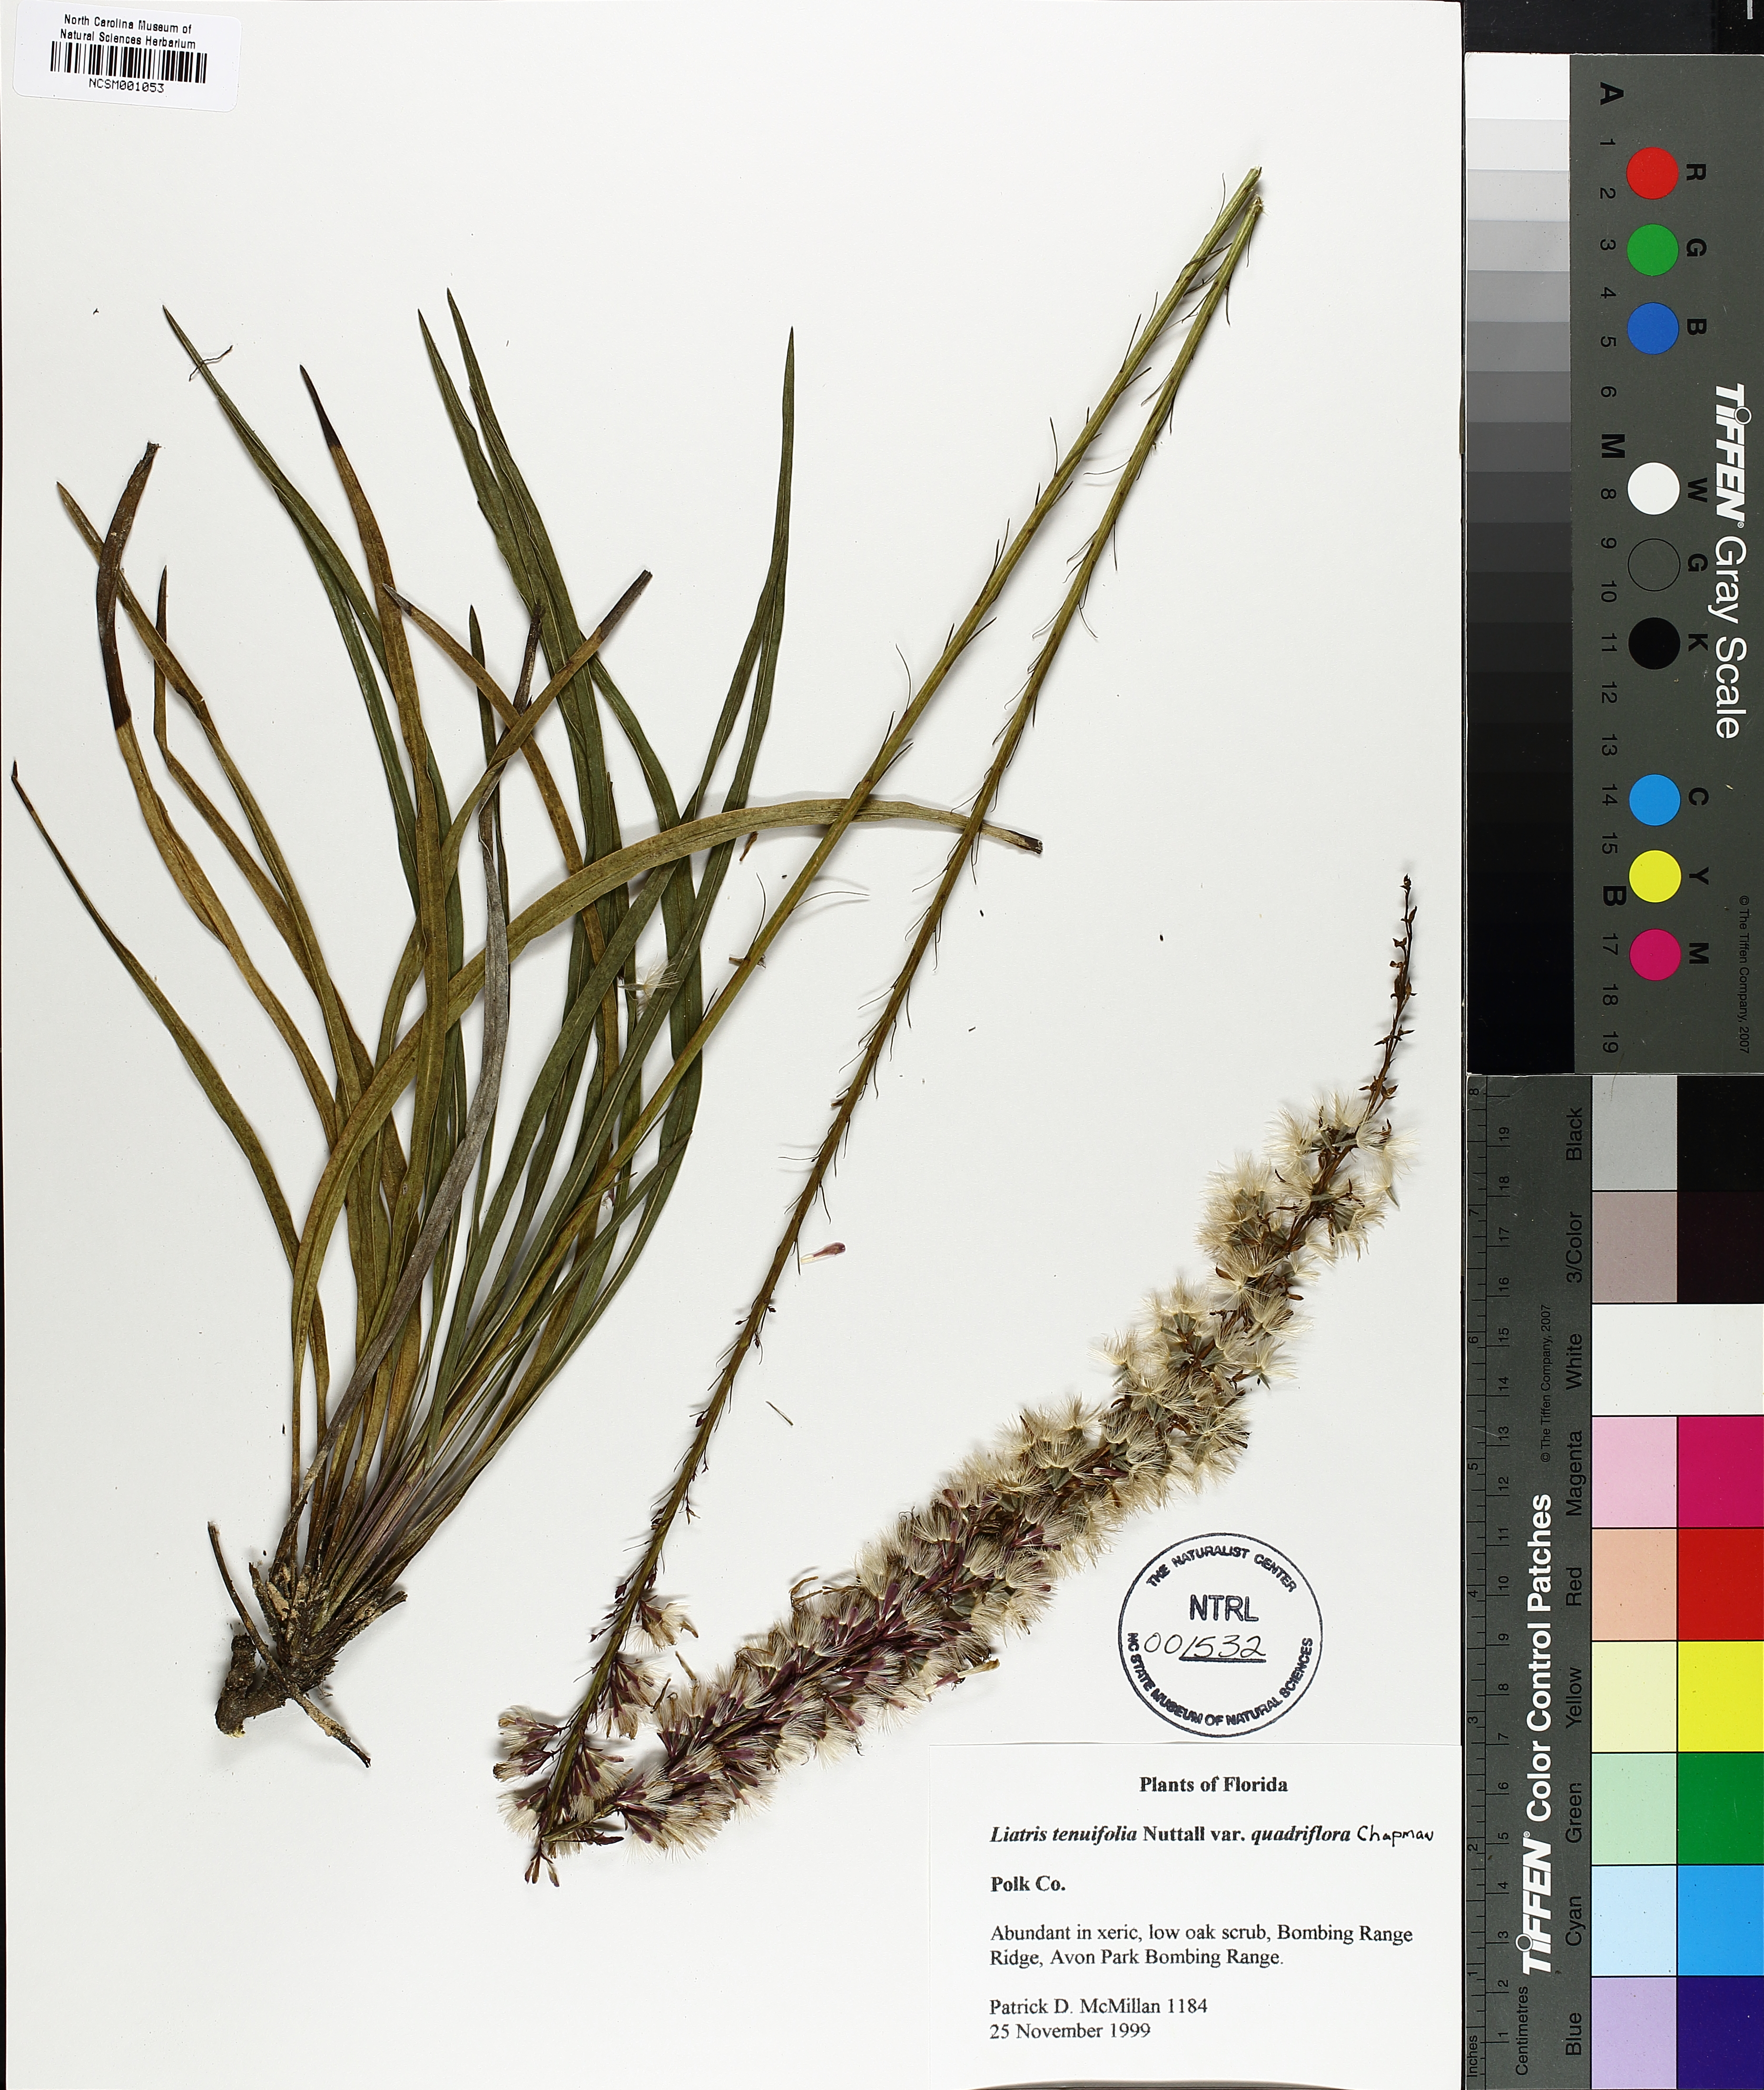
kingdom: Plantae
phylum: Tracheophyta
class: Magnoliopsida
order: Asterales
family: Asteraceae
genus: Liatris
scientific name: Liatris quadriflora
